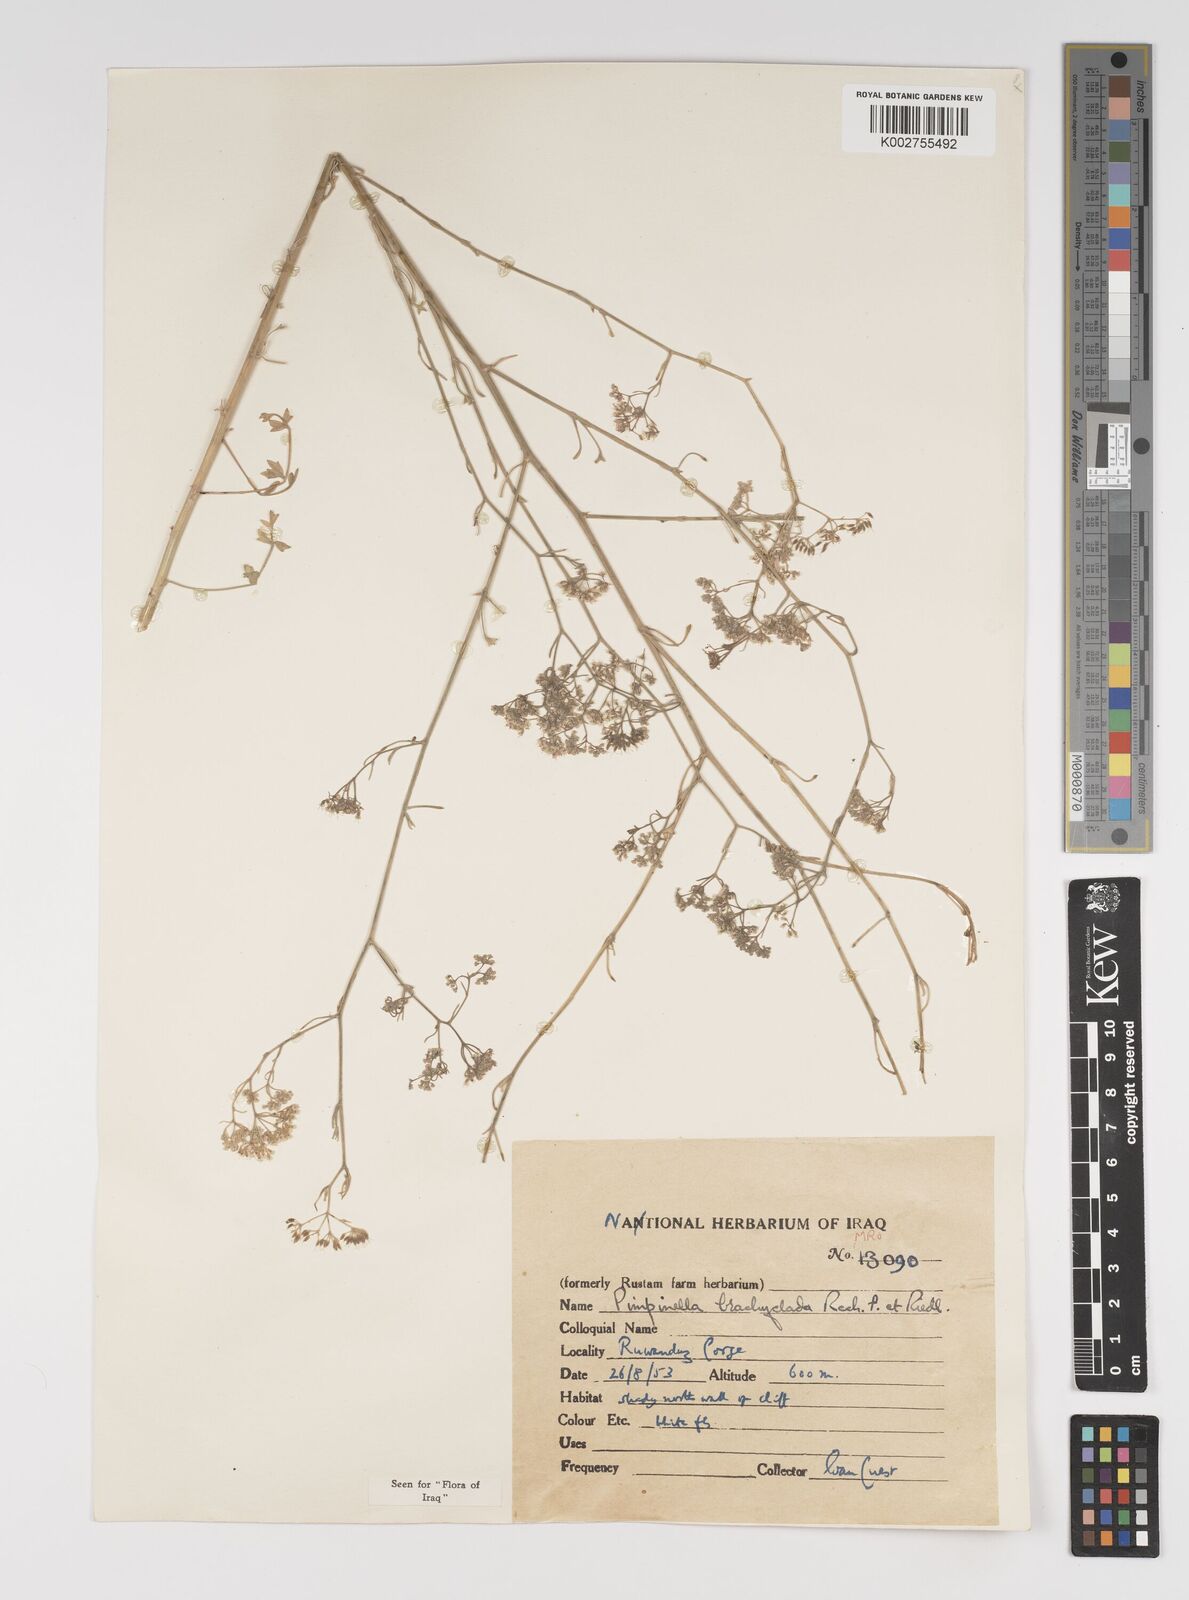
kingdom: Plantae
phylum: Tracheophyta
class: Magnoliopsida
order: Apiales
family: Apiaceae
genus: Pimpinella
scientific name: Pimpinella brachyclada
